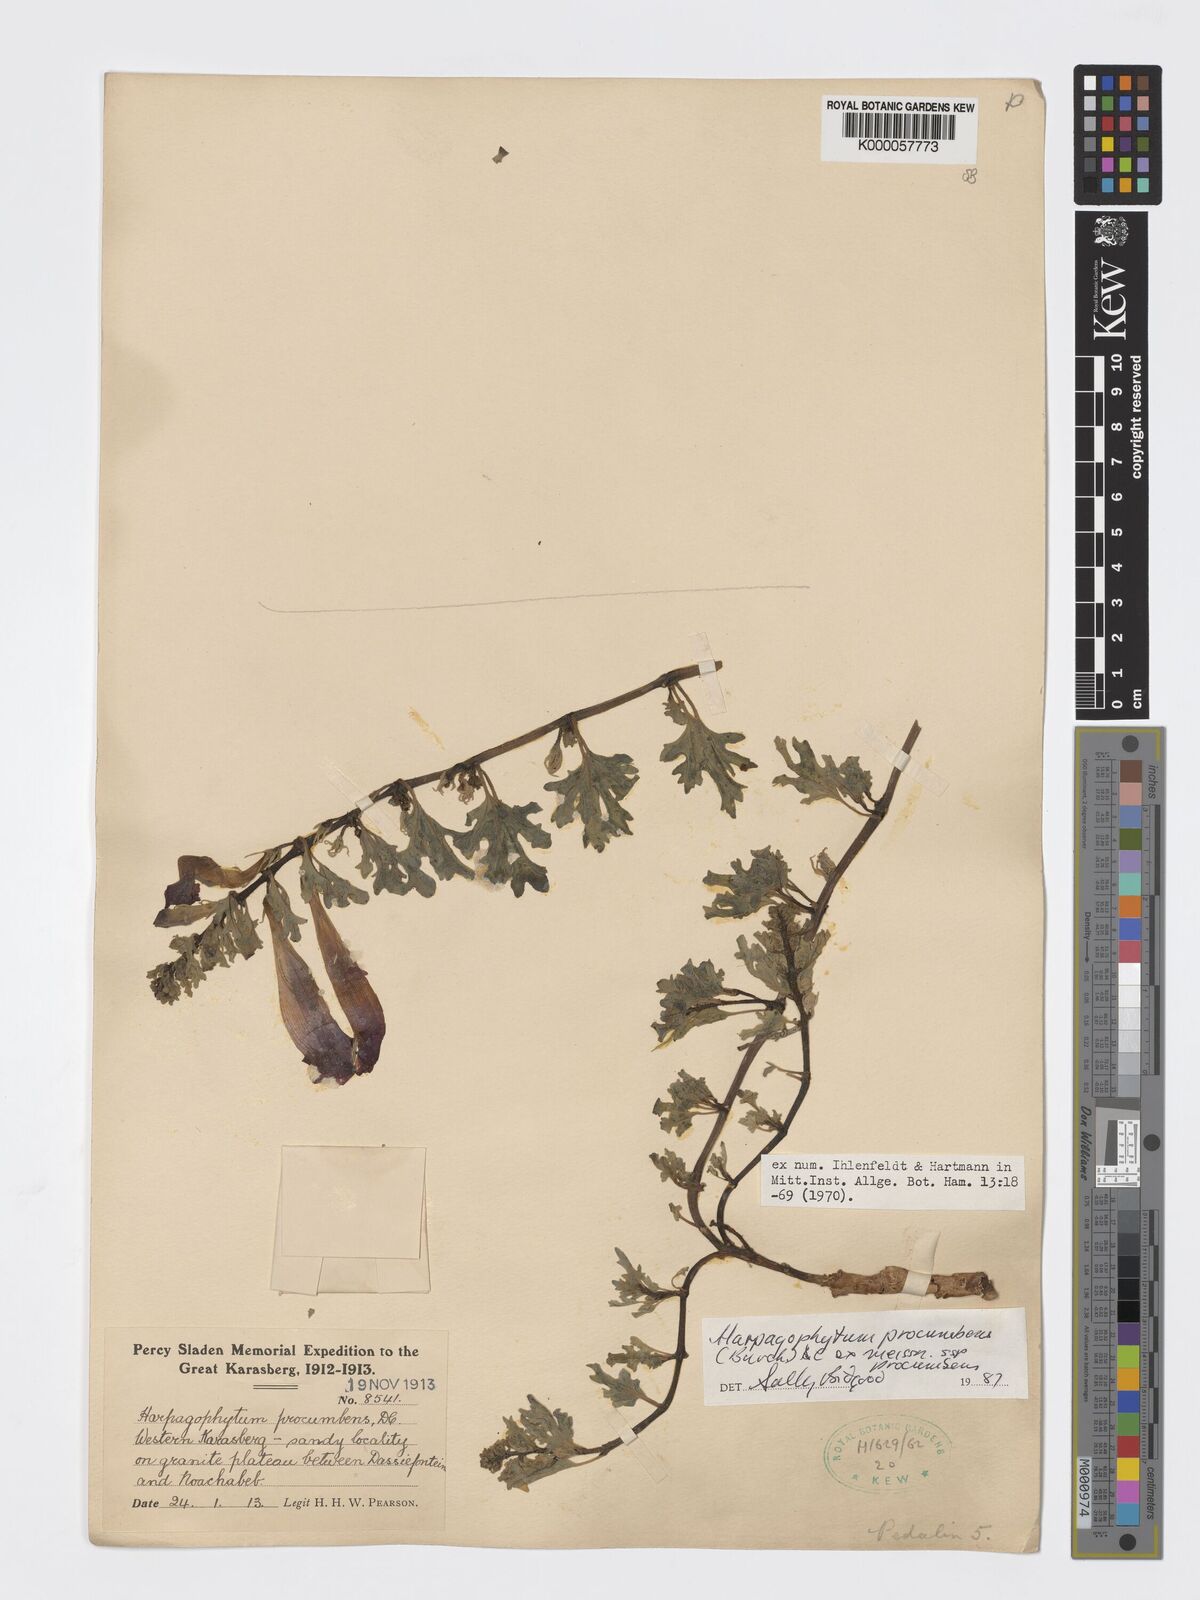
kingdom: Plantae
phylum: Tracheophyta
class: Magnoliopsida
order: Lamiales
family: Pedaliaceae
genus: Harpagophytum
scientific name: Harpagophytum procumbens
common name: Grappleplant
